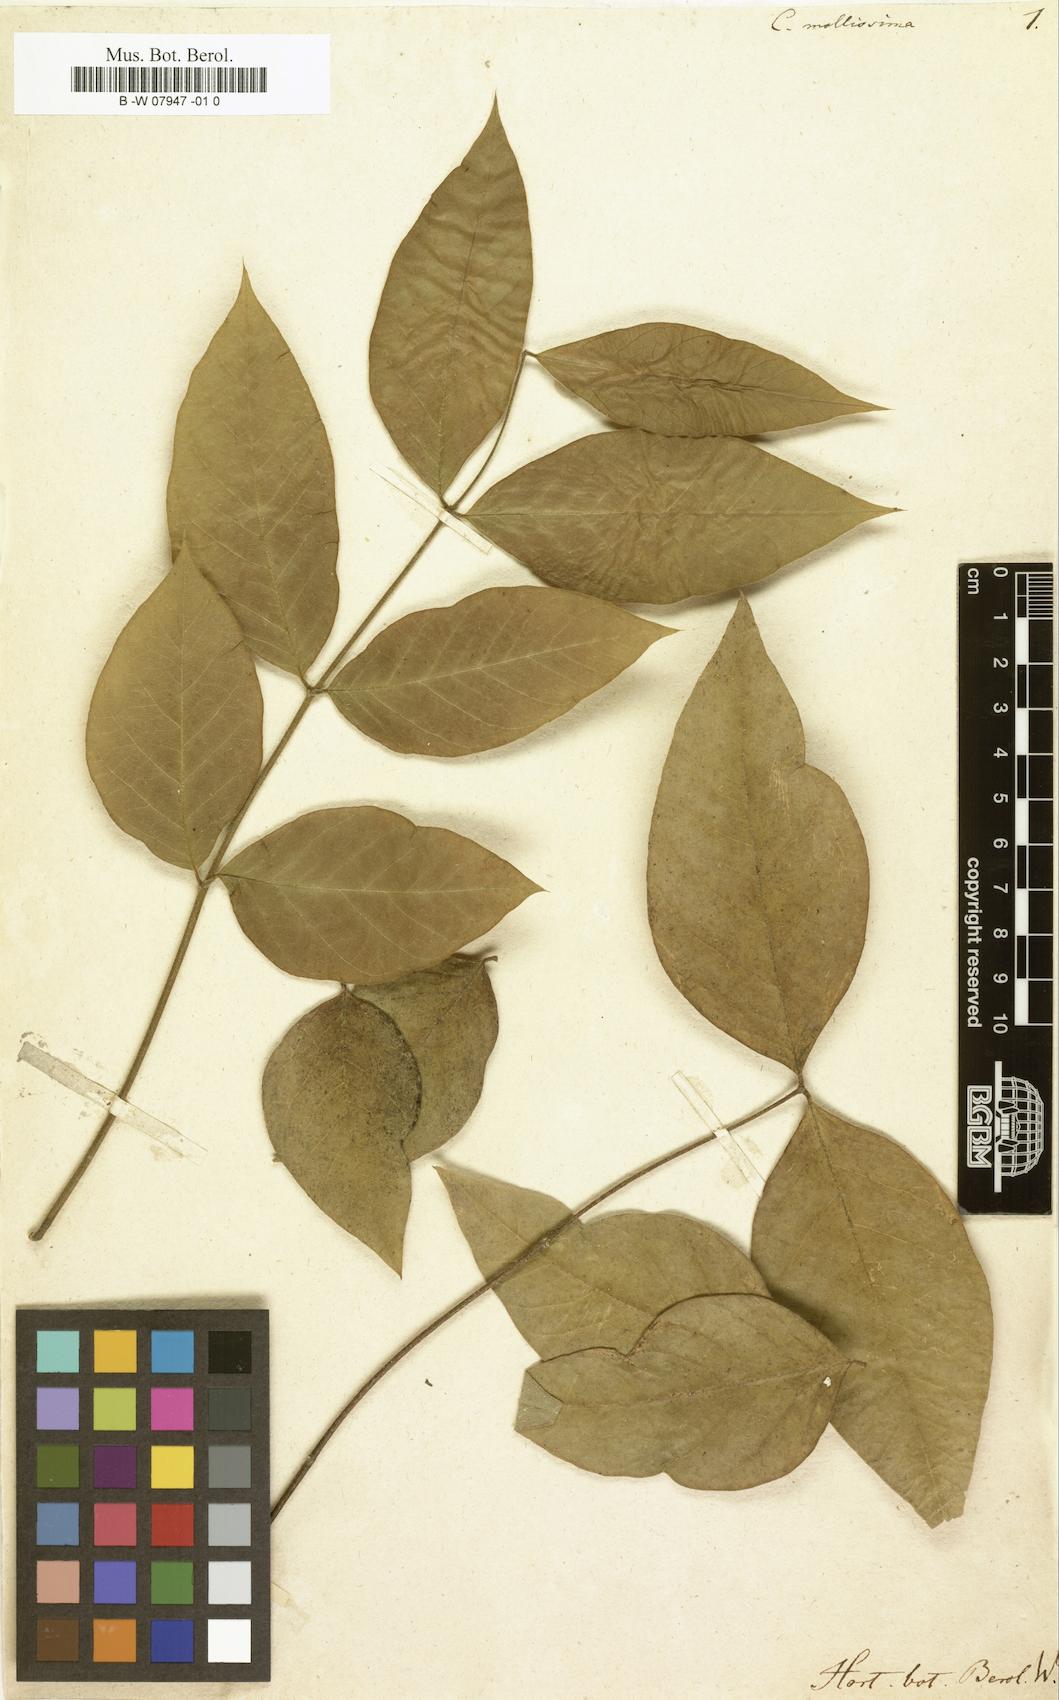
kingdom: Plantae
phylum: Tracheophyta
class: Magnoliopsida
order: Fabales
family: Fabaceae
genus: Senna
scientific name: Senna mollissima
